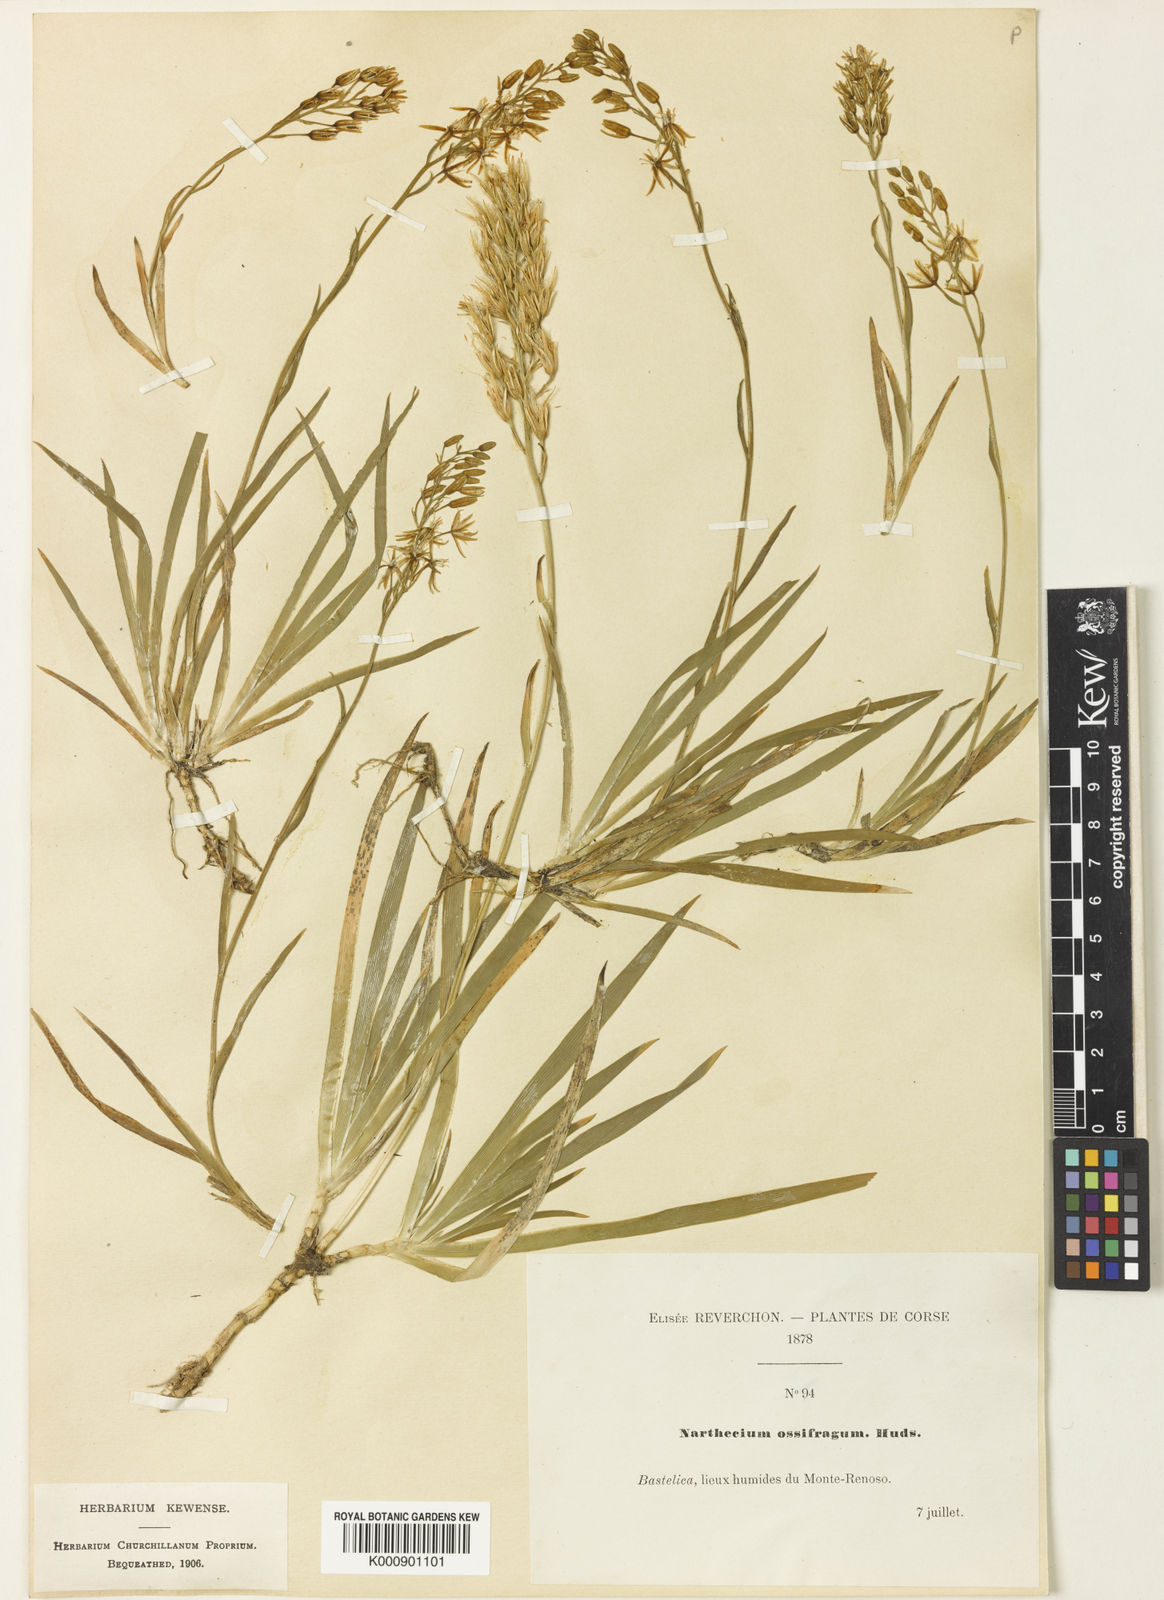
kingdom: Plantae
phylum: Tracheophyta
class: Liliopsida
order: Dioscoreales
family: Nartheciaceae
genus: Narthecium
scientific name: Narthecium ossifragum
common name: Bog asphodel
